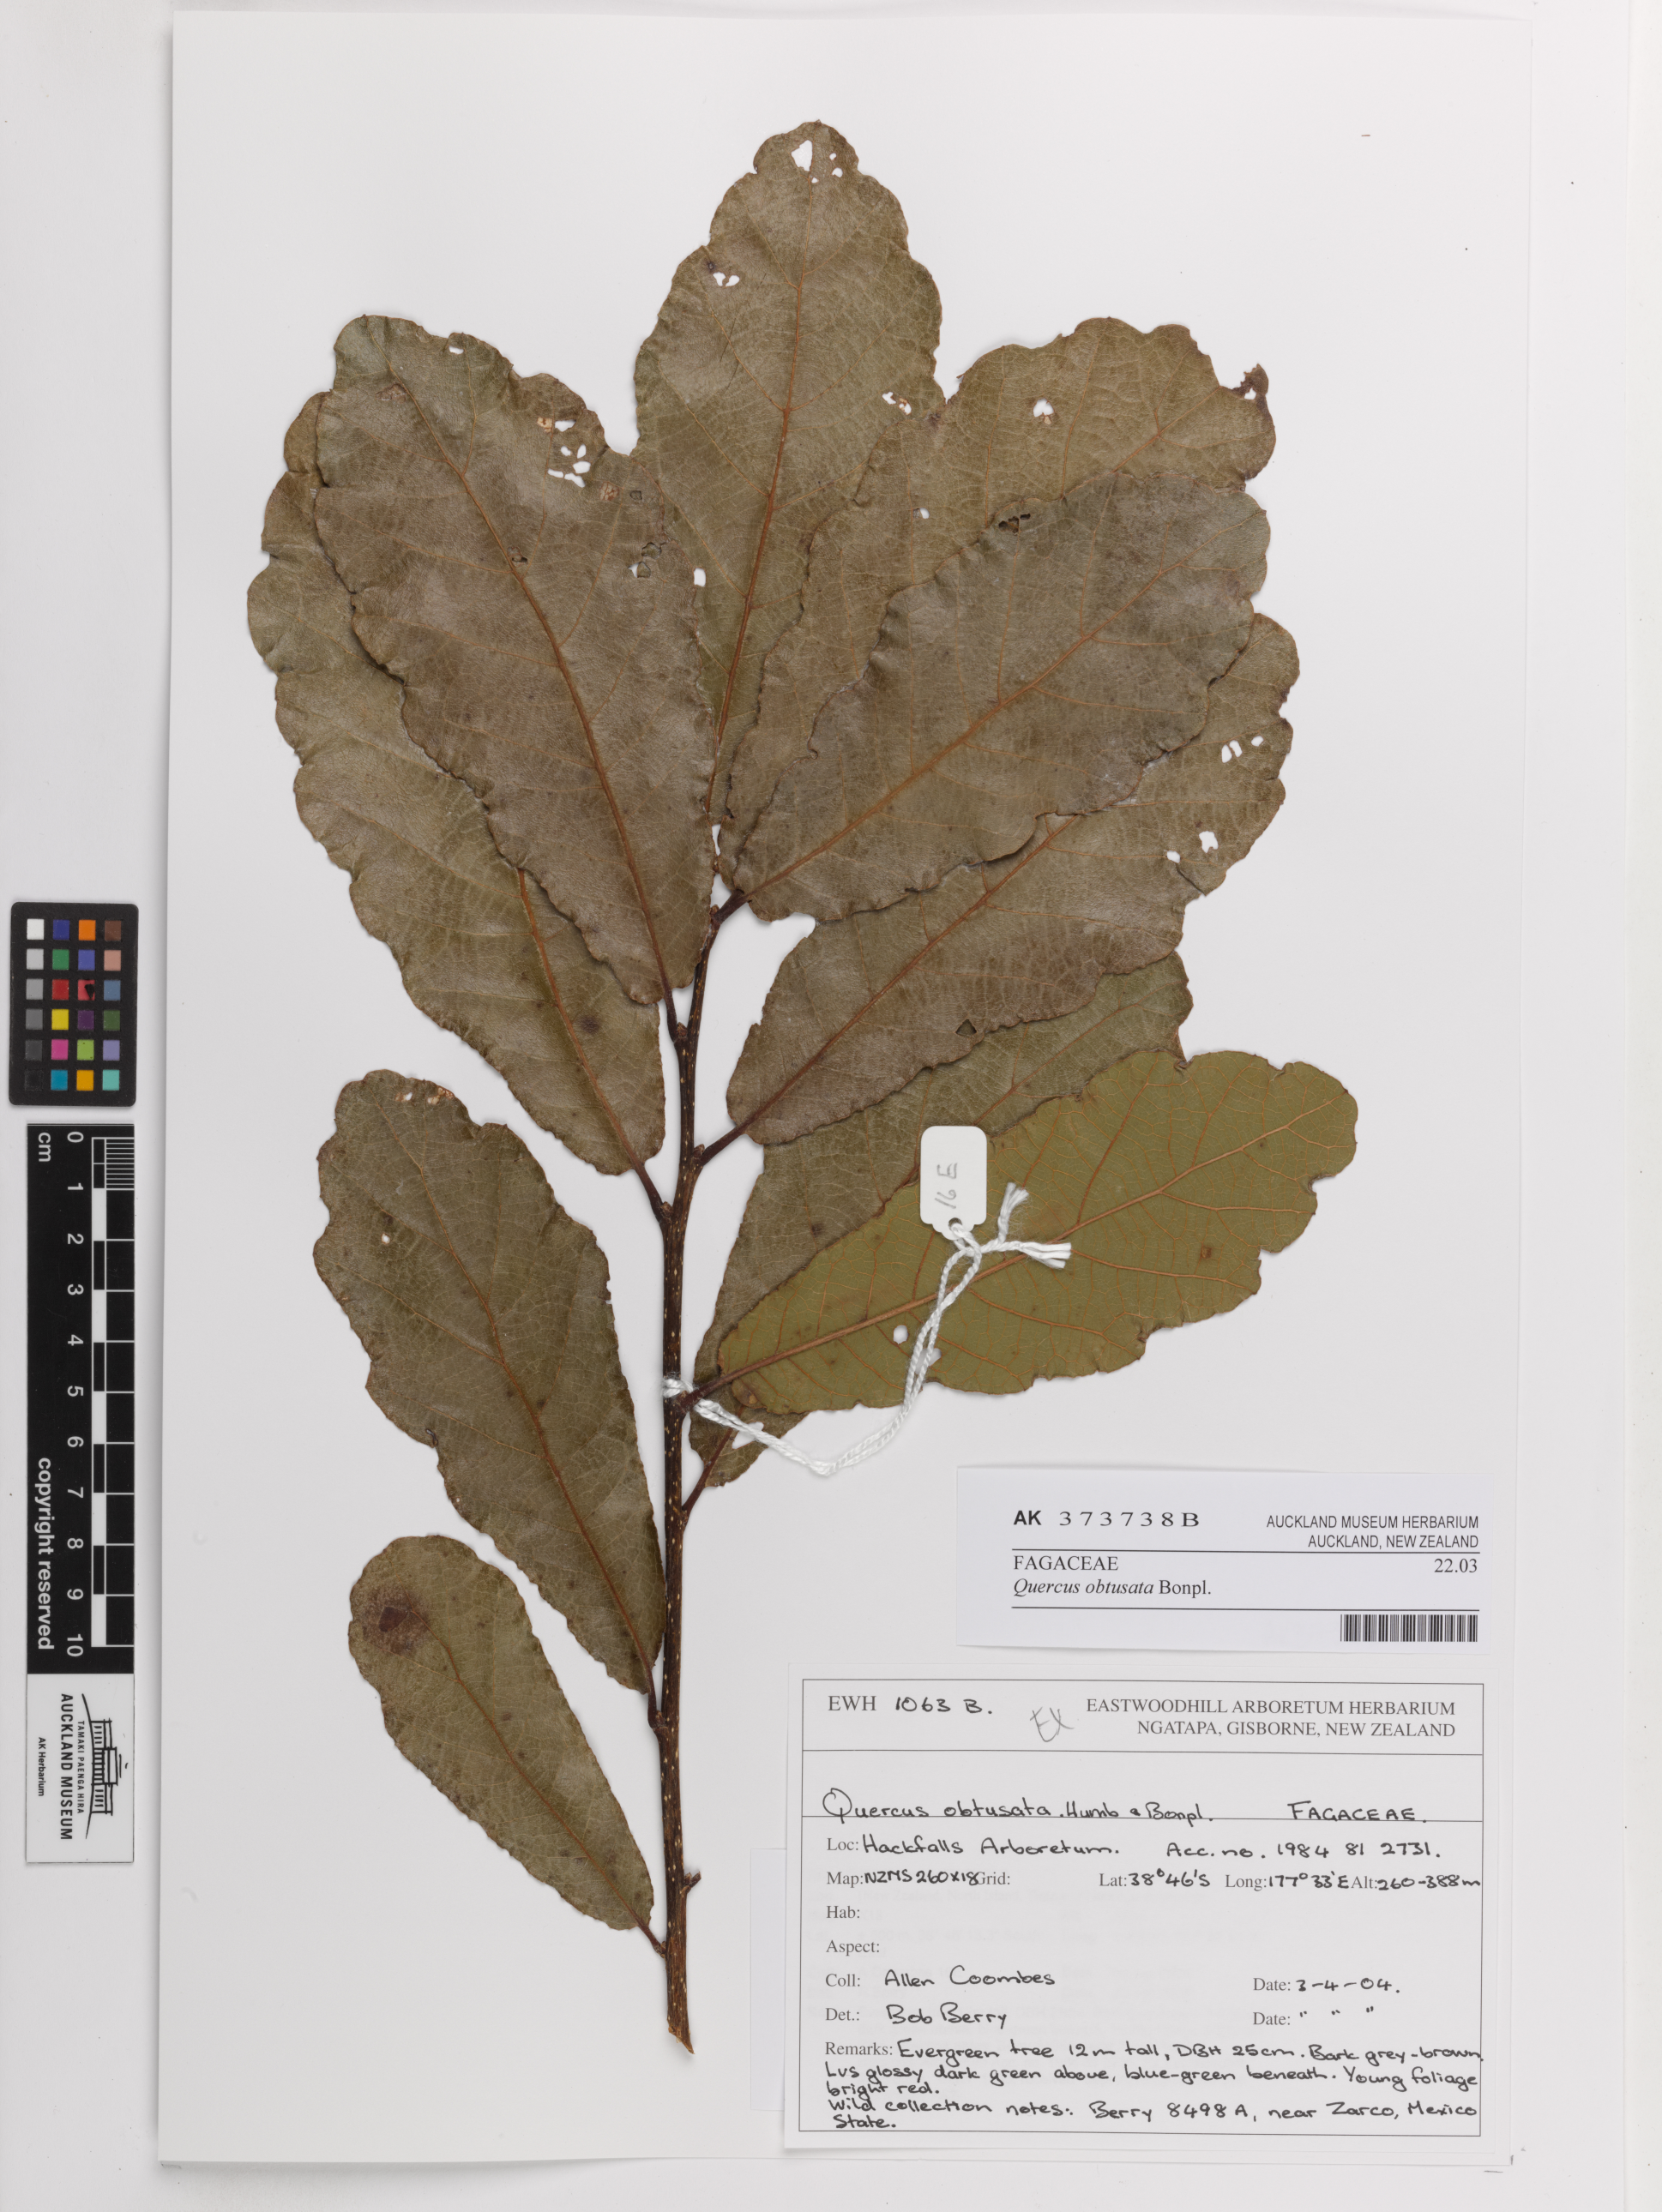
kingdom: Plantae
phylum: Tracheophyta
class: Magnoliopsida
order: Fagales
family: Fagaceae
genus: Quercus
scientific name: Quercus obtusata
